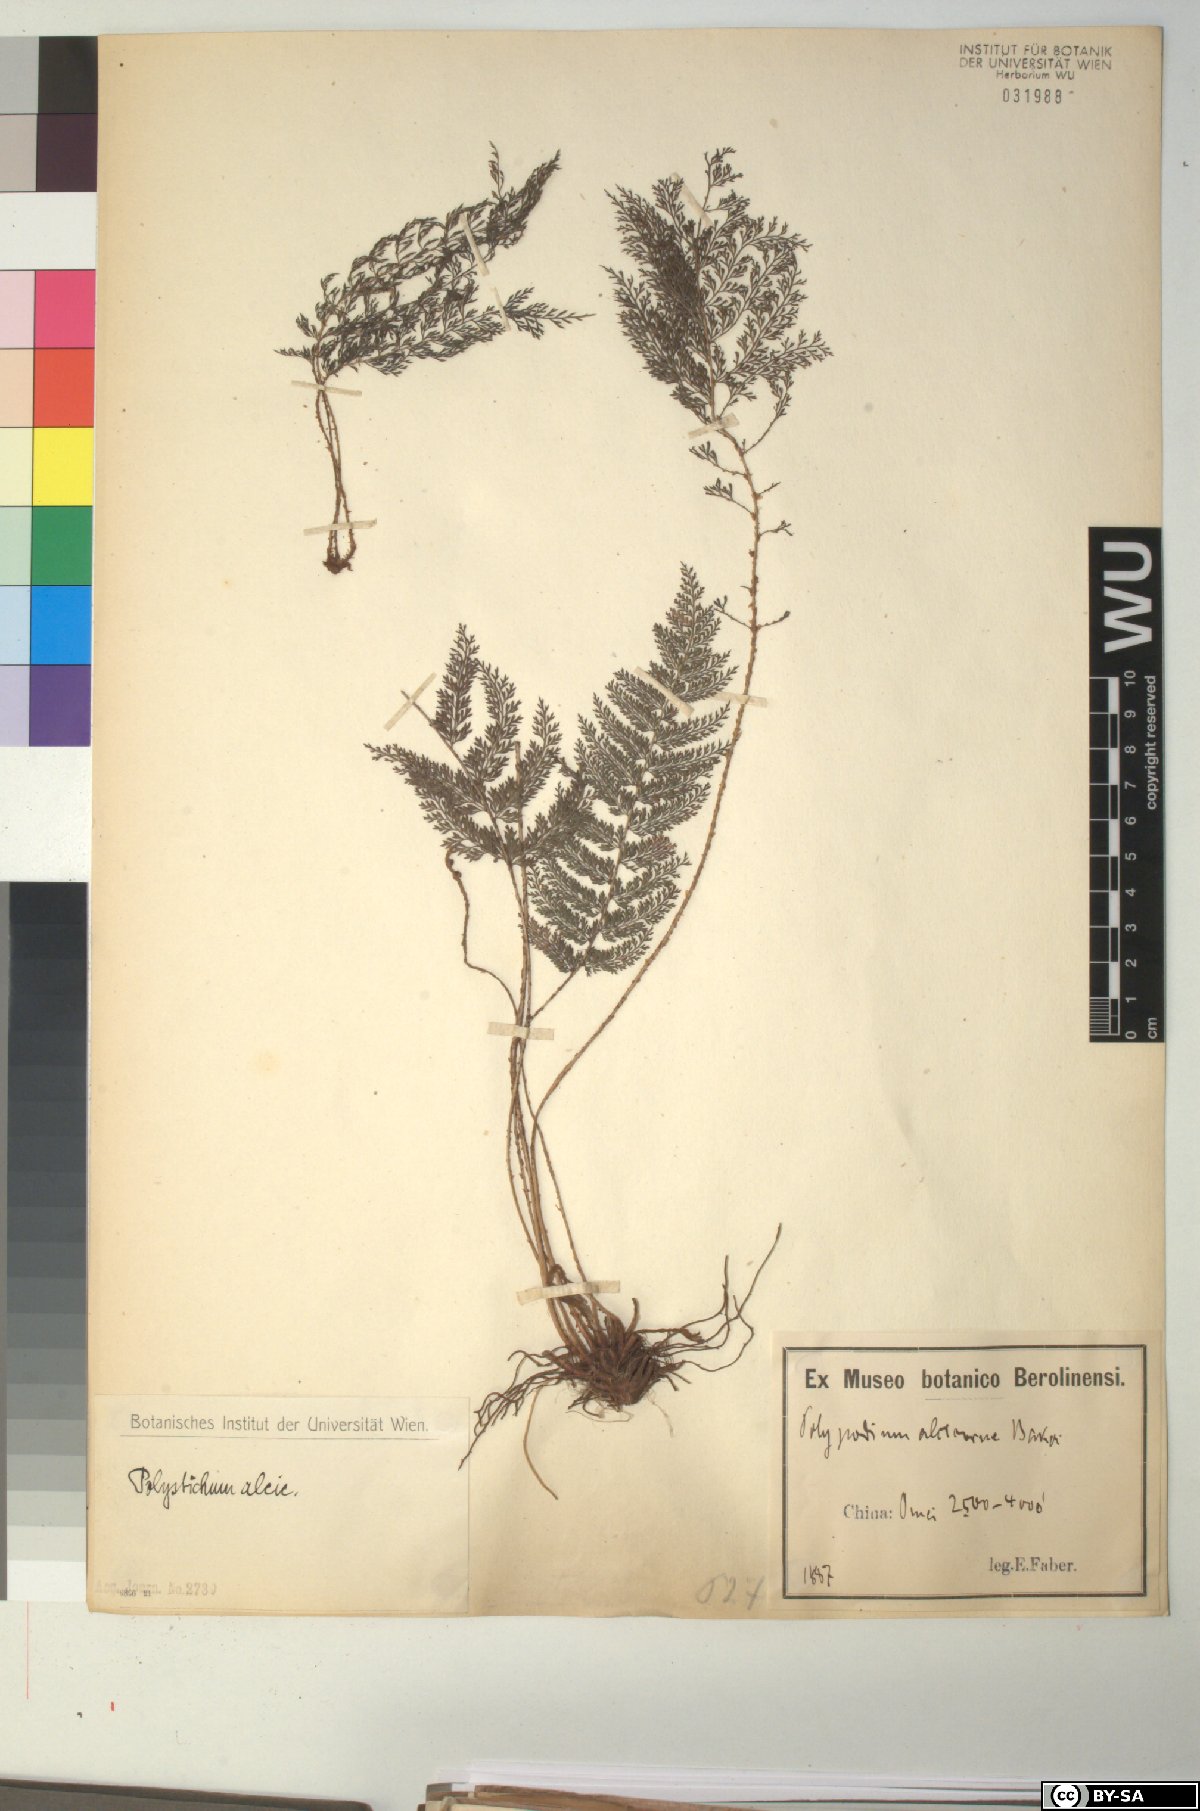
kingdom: Plantae
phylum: Tracheophyta
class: Polypodiopsida
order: Polypodiales
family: Dryopteridaceae
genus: Polystichum
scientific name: Polystichum alcicorne
